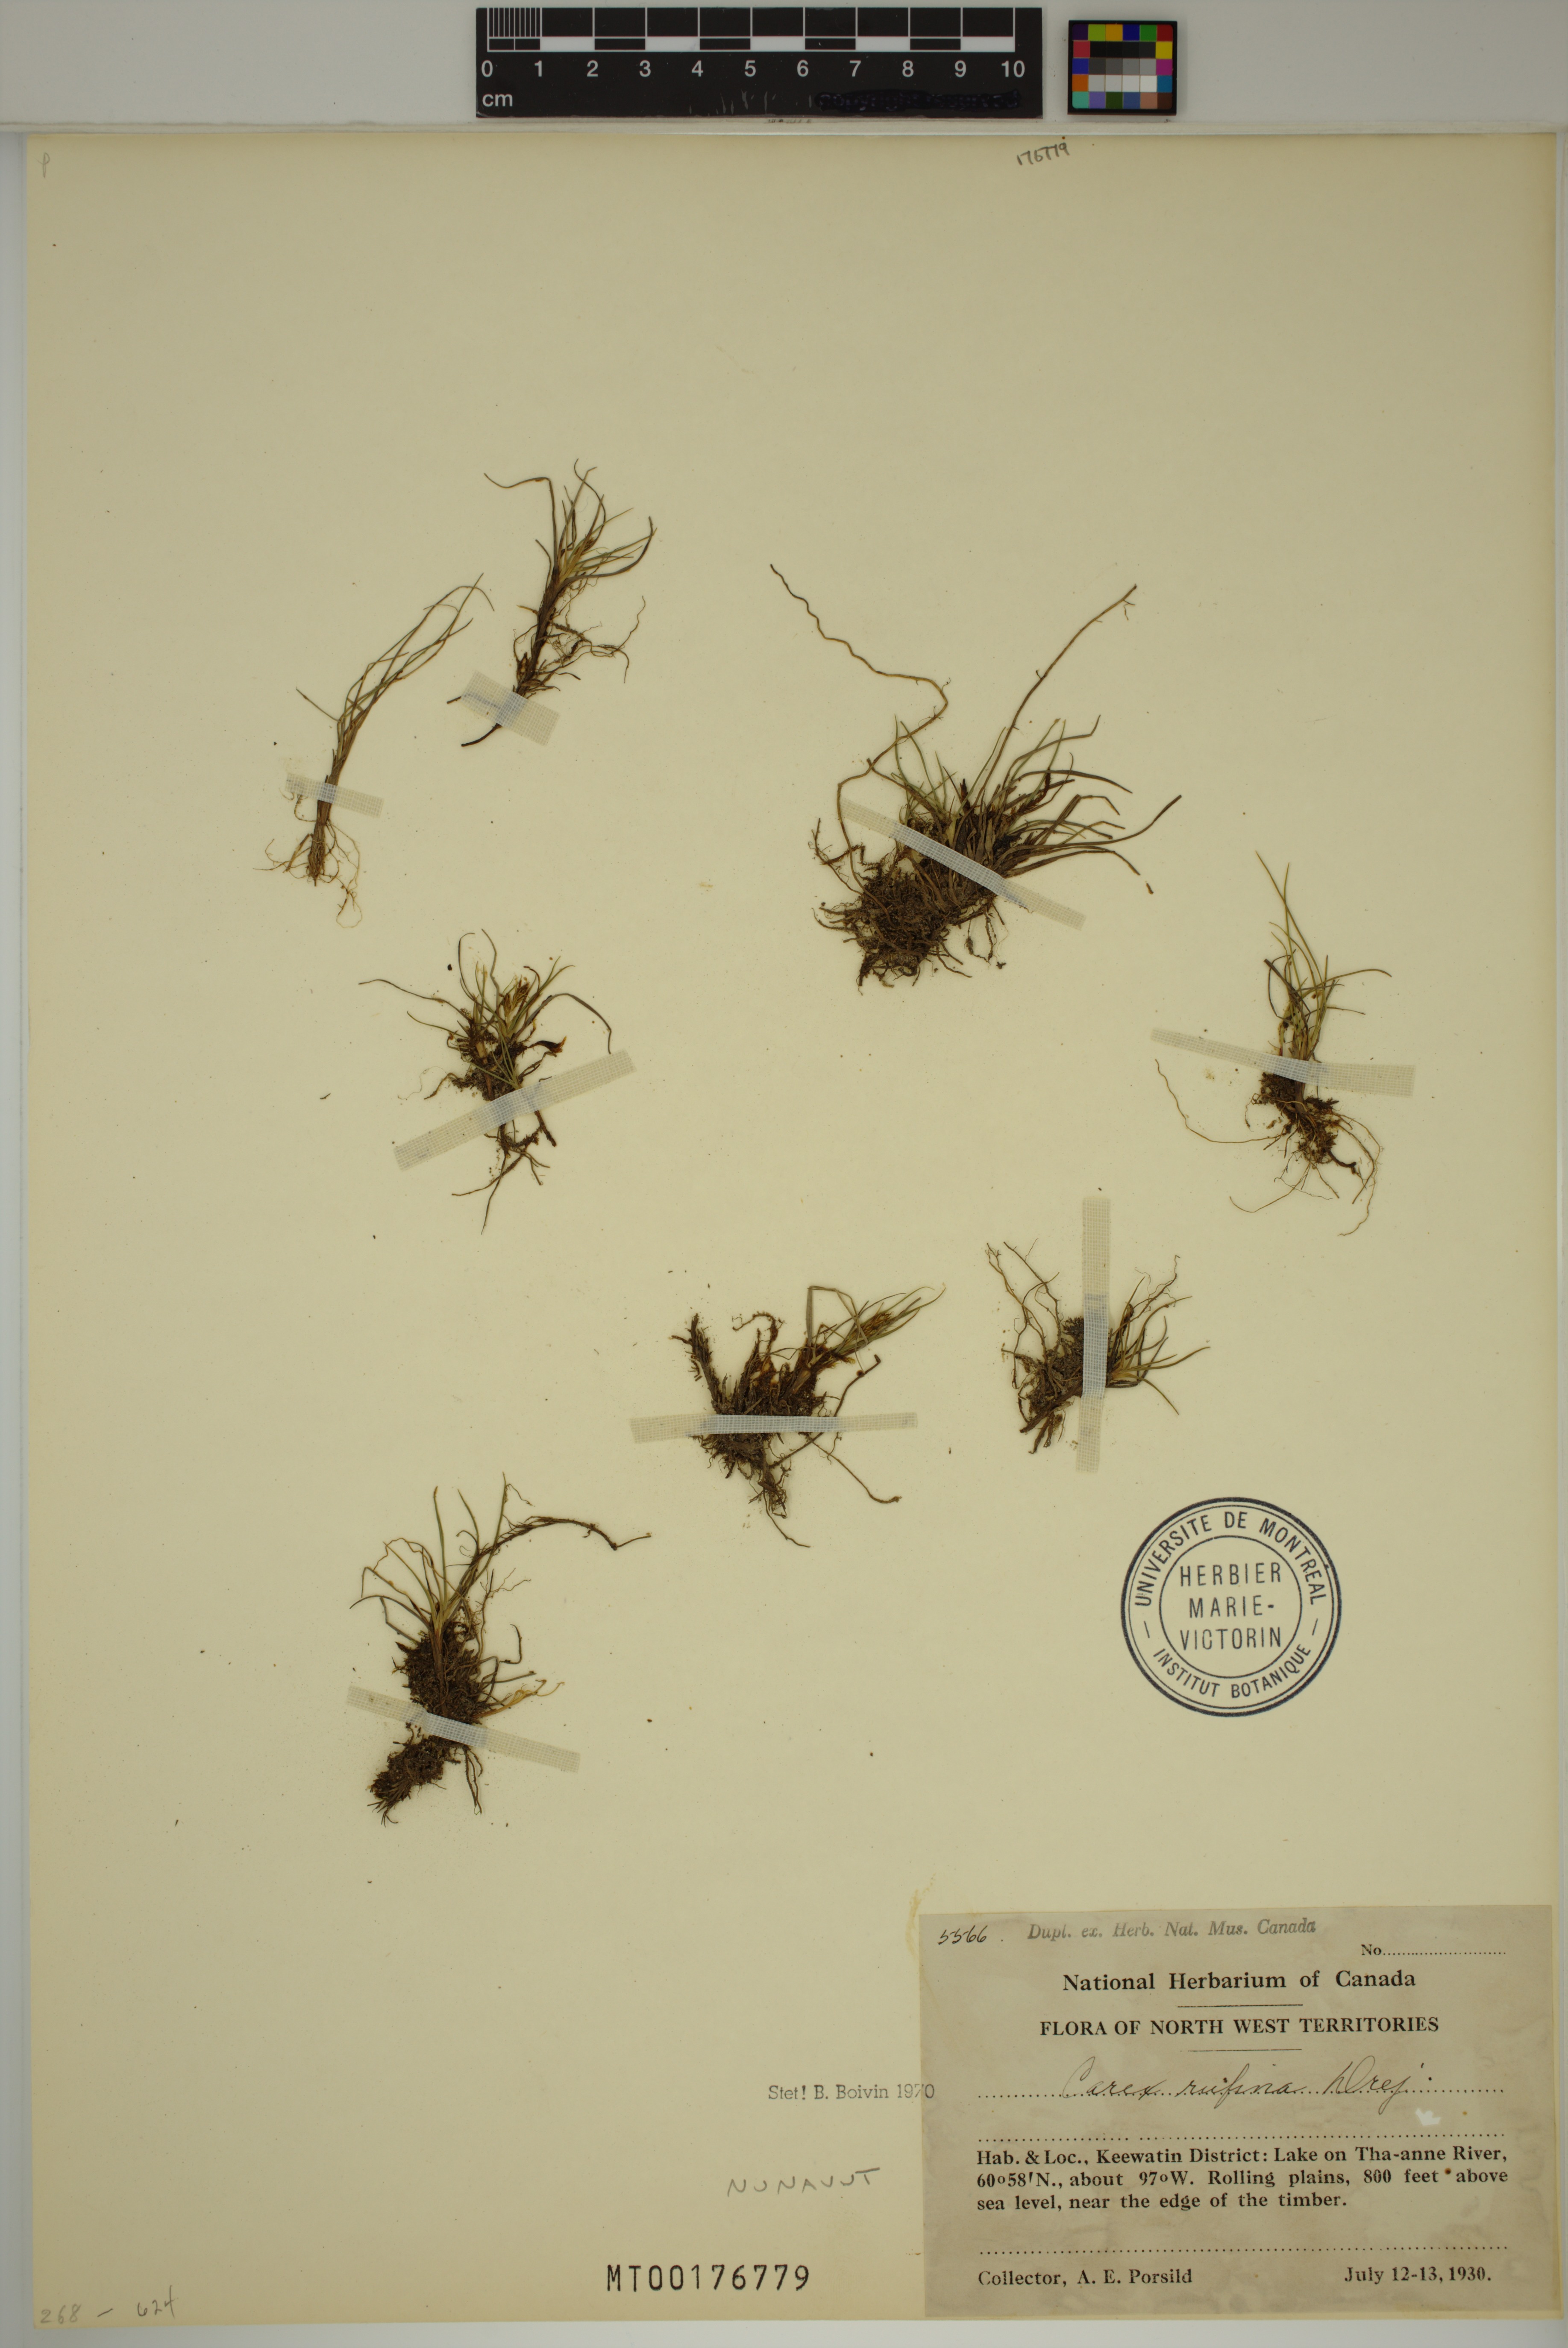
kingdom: Plantae
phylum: Tracheophyta
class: Liliopsida
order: Poales
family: Cyperaceae
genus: Carex
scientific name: Carex rufina
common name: Reddish sedge
